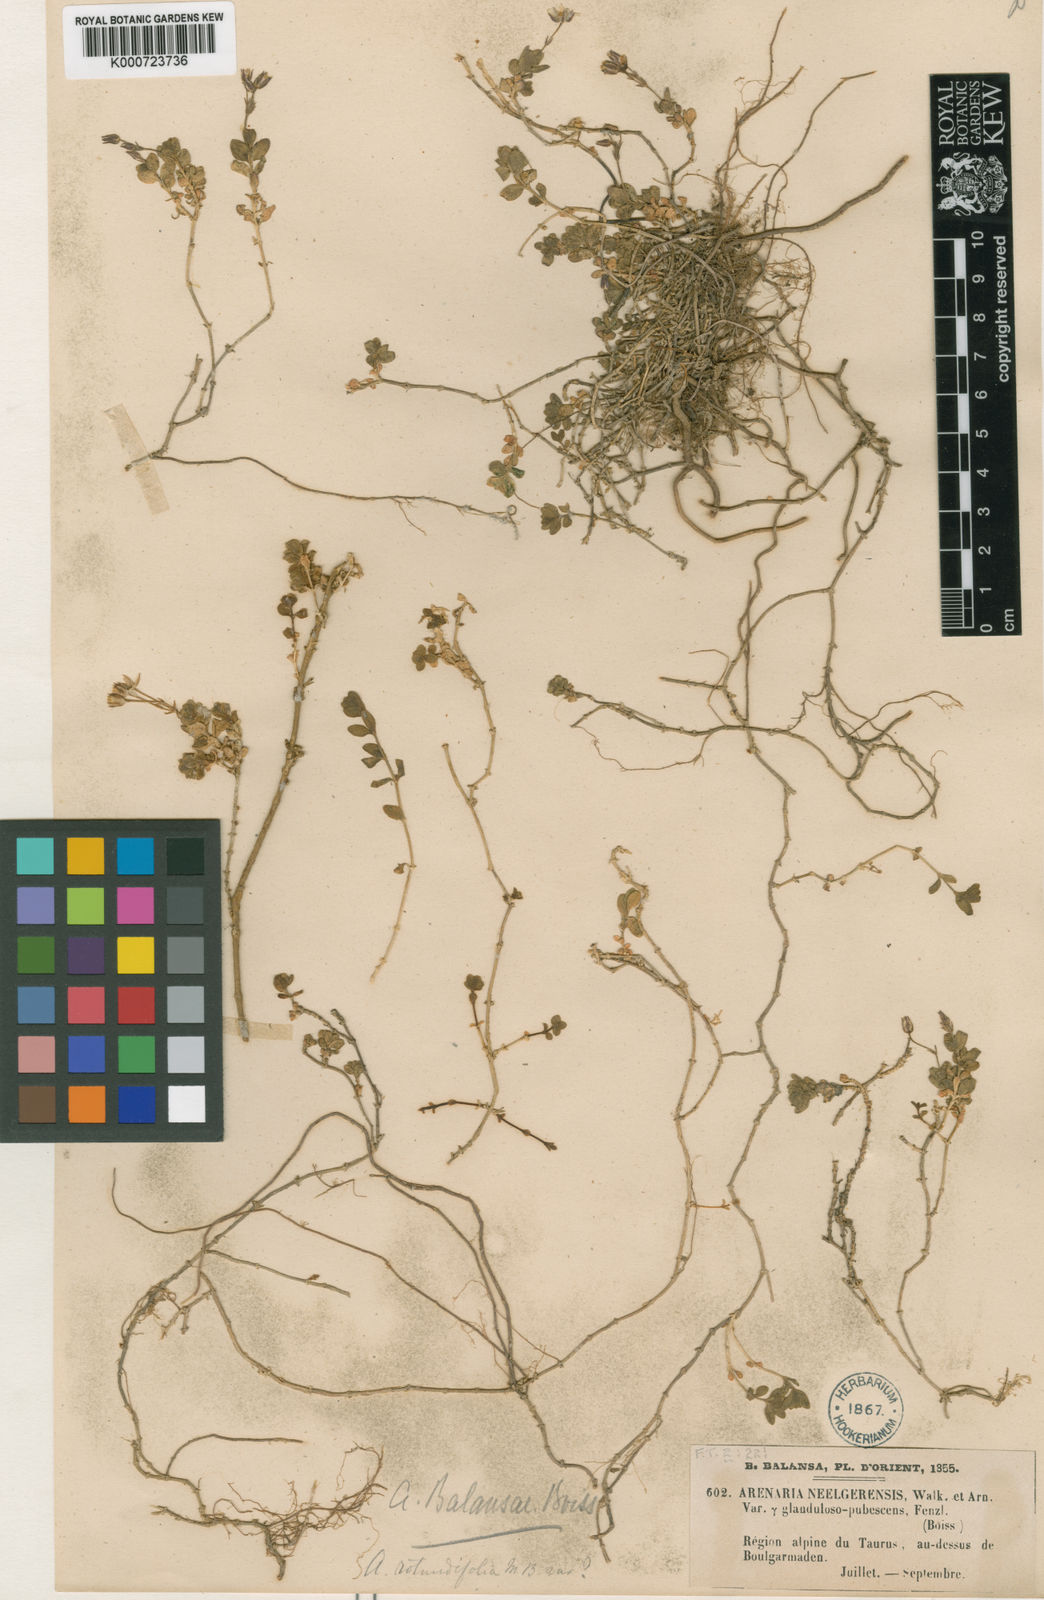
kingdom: Plantae
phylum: Tracheophyta
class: Magnoliopsida
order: Caryophyllales
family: Caryophyllaceae
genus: Arenaria
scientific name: Arenaria balansae
